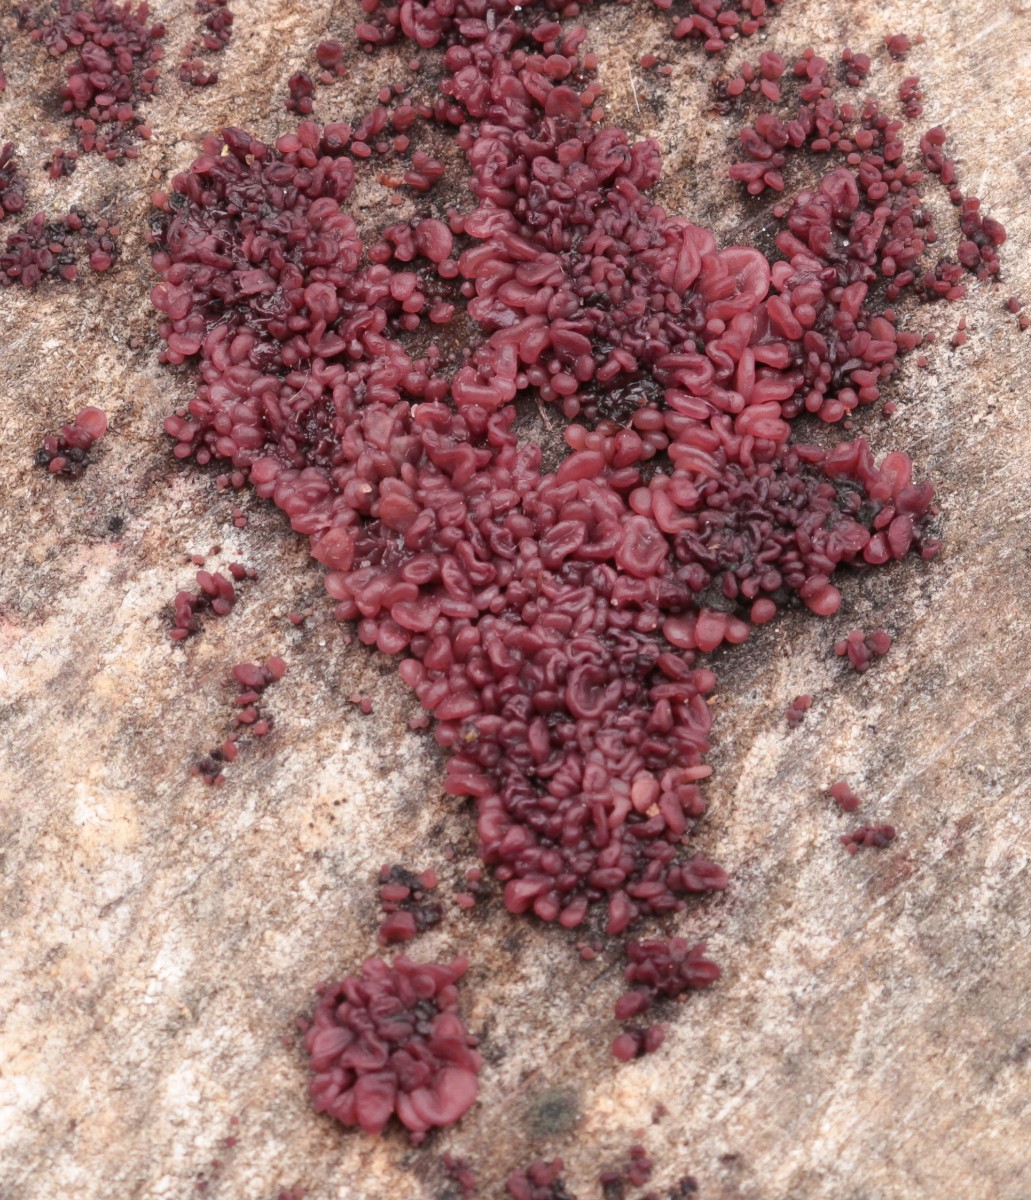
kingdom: Fungi
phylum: Ascomycota
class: Leotiomycetes
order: Helotiales
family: Gelatinodiscaceae
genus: Ascocoryne
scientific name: Ascocoryne sarcoides
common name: rødlilla sejskive
